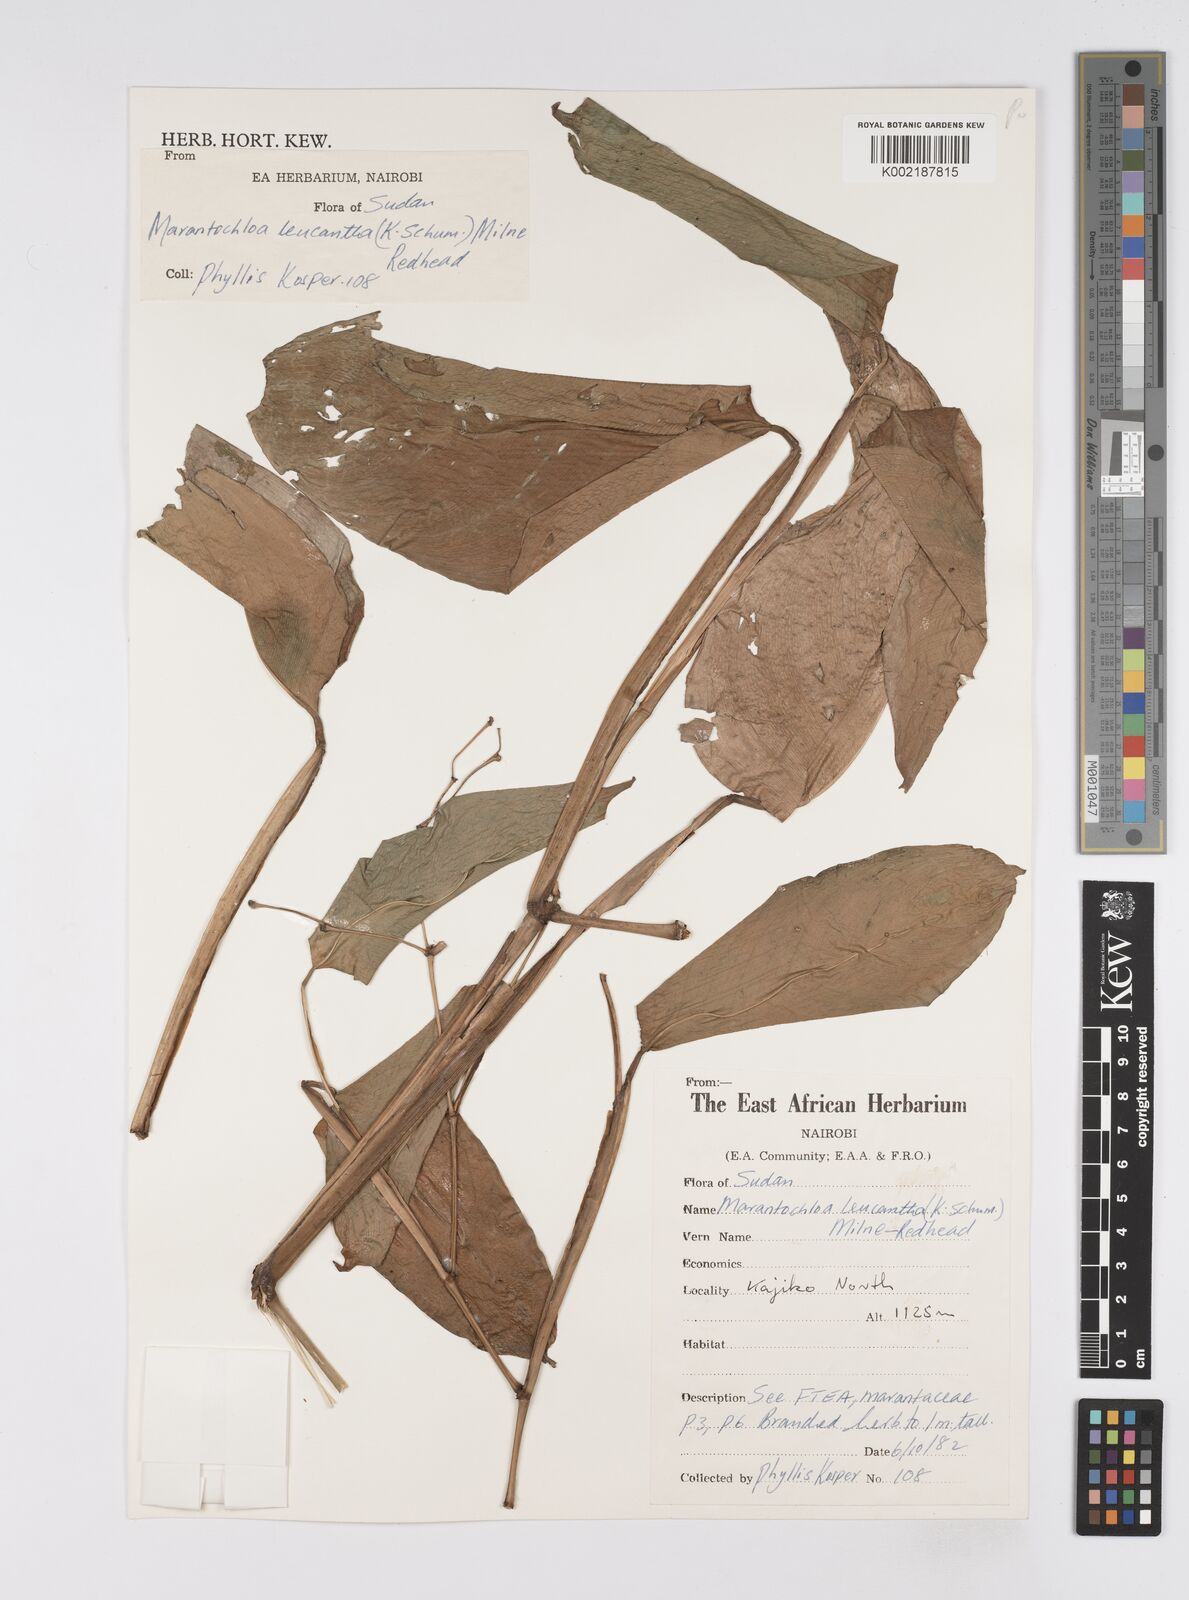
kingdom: Plantae
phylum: Tracheophyta
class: Liliopsida
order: Zingiberales
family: Marantaceae
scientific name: Marantaceae
